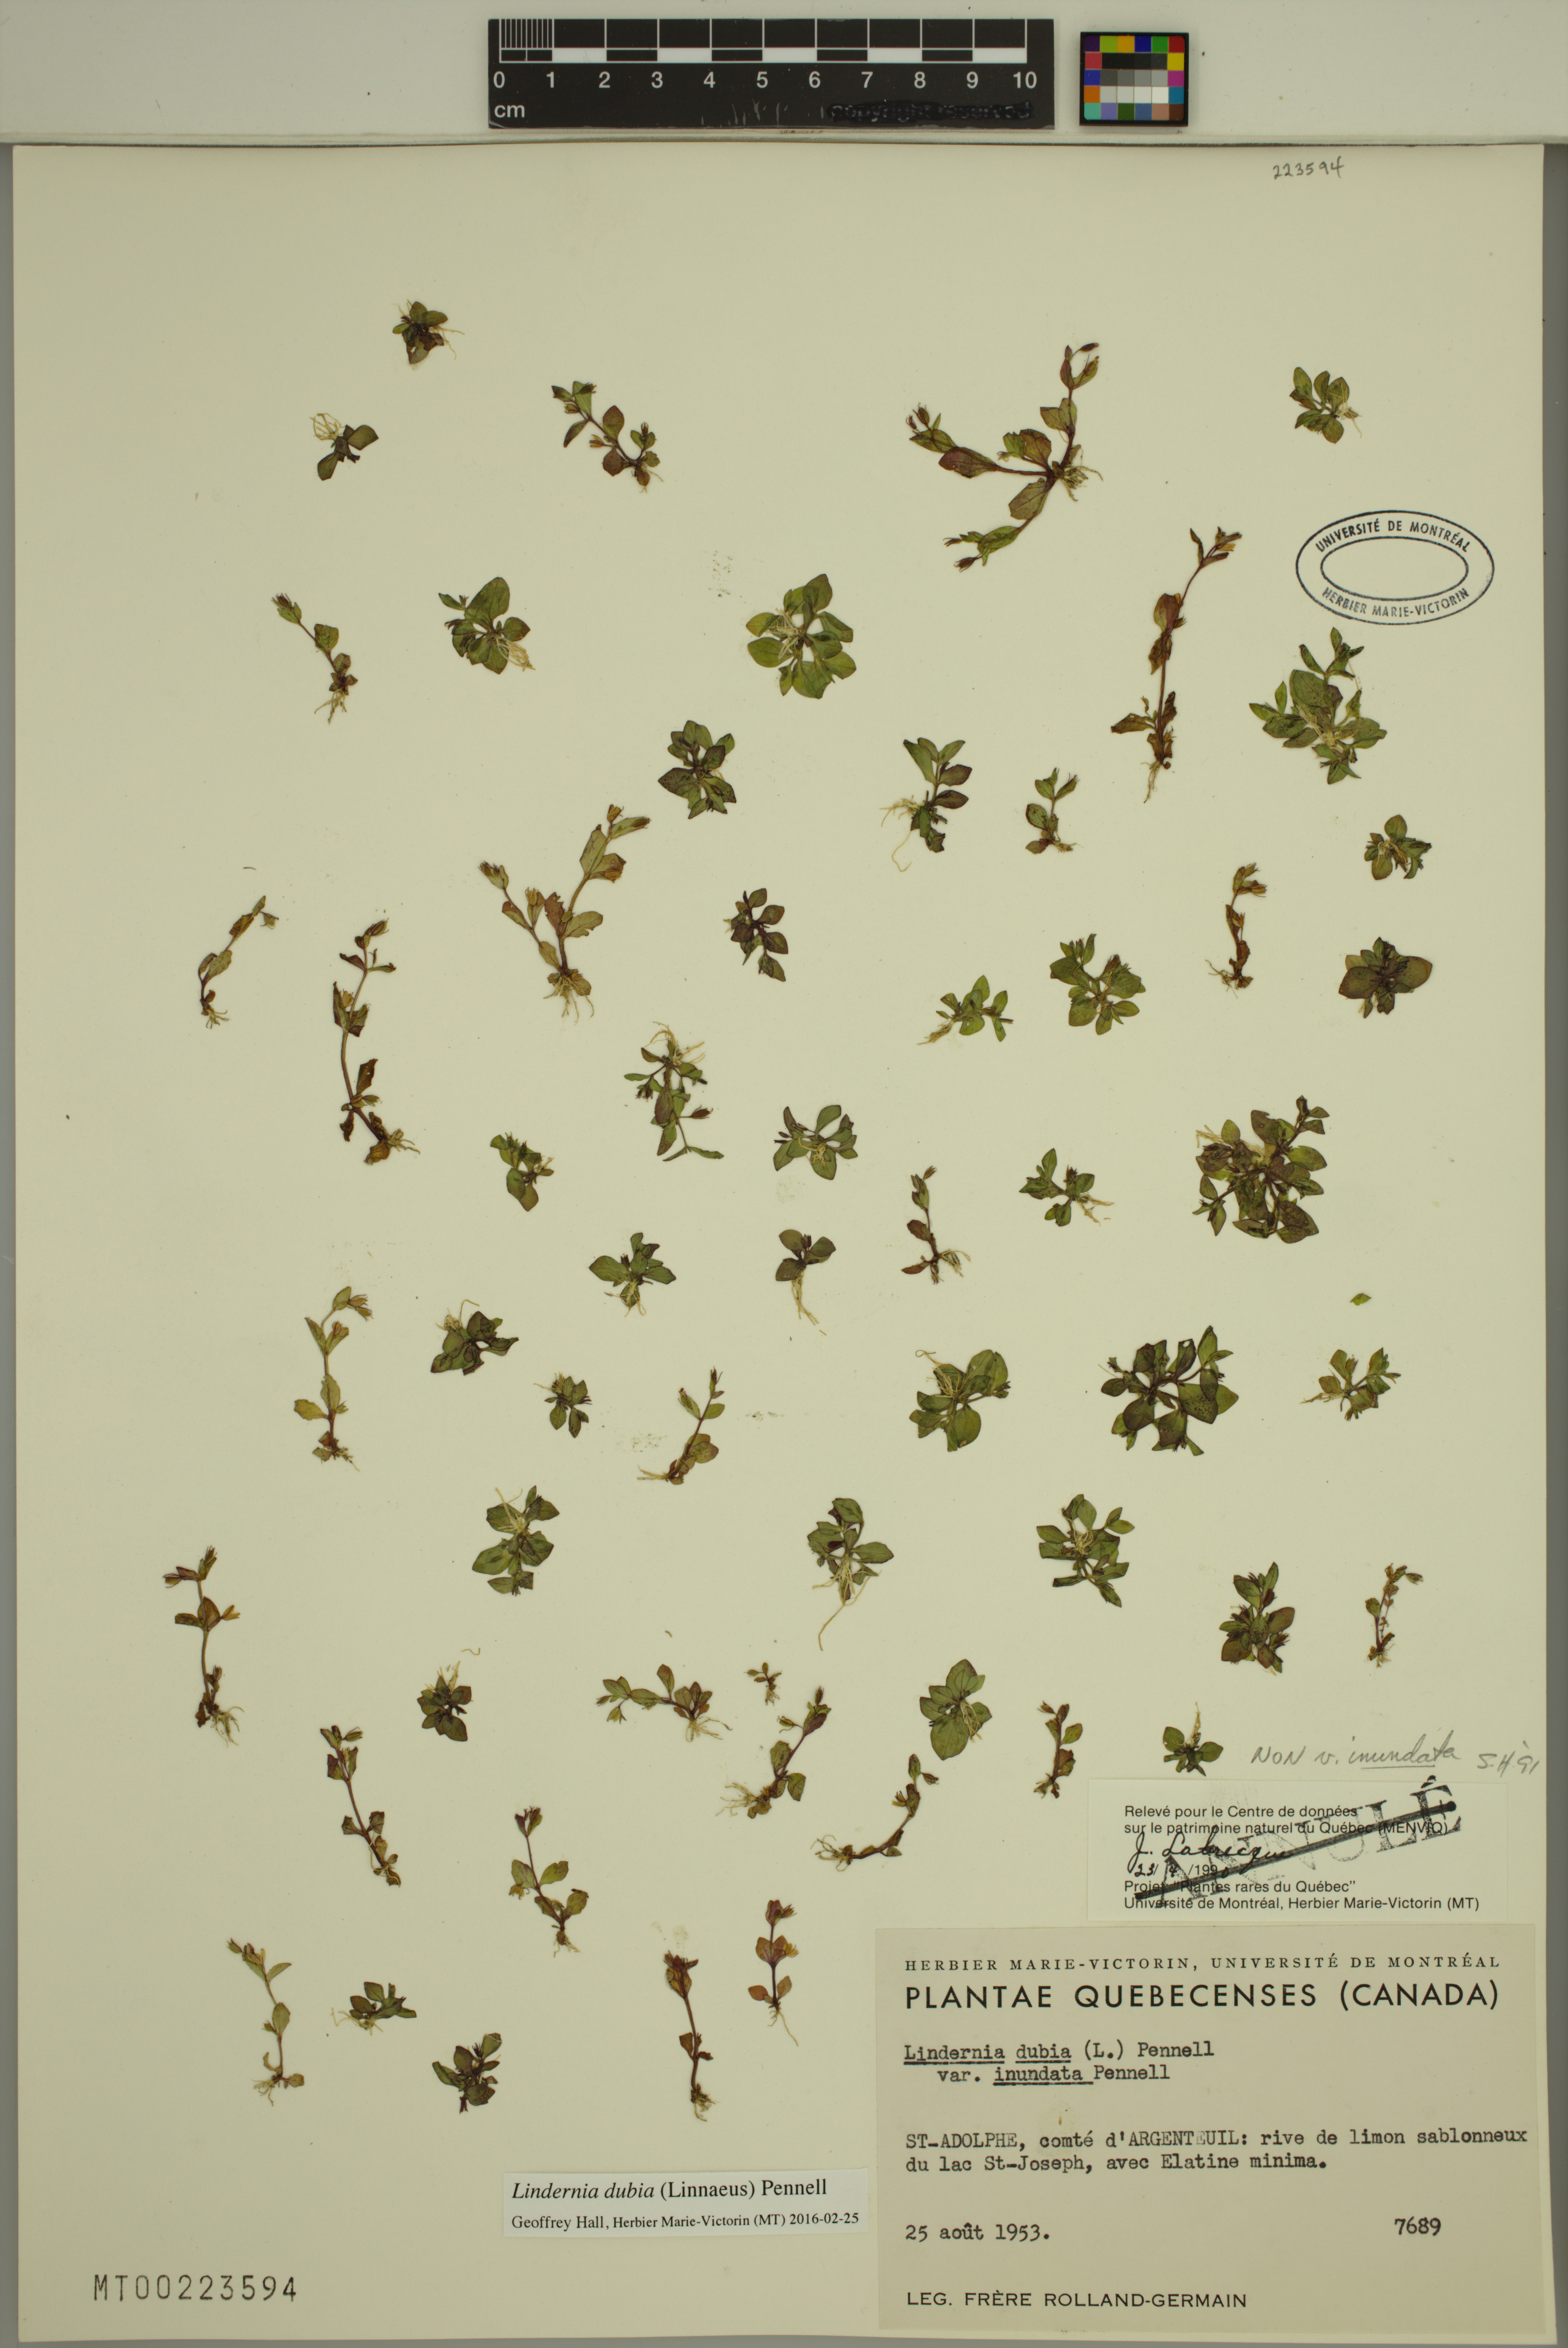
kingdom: Plantae
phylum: Tracheophyta
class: Magnoliopsida
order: Lamiales
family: Linderniaceae
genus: Lindernia
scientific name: Lindernia dubia
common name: Annual false pimpernel
